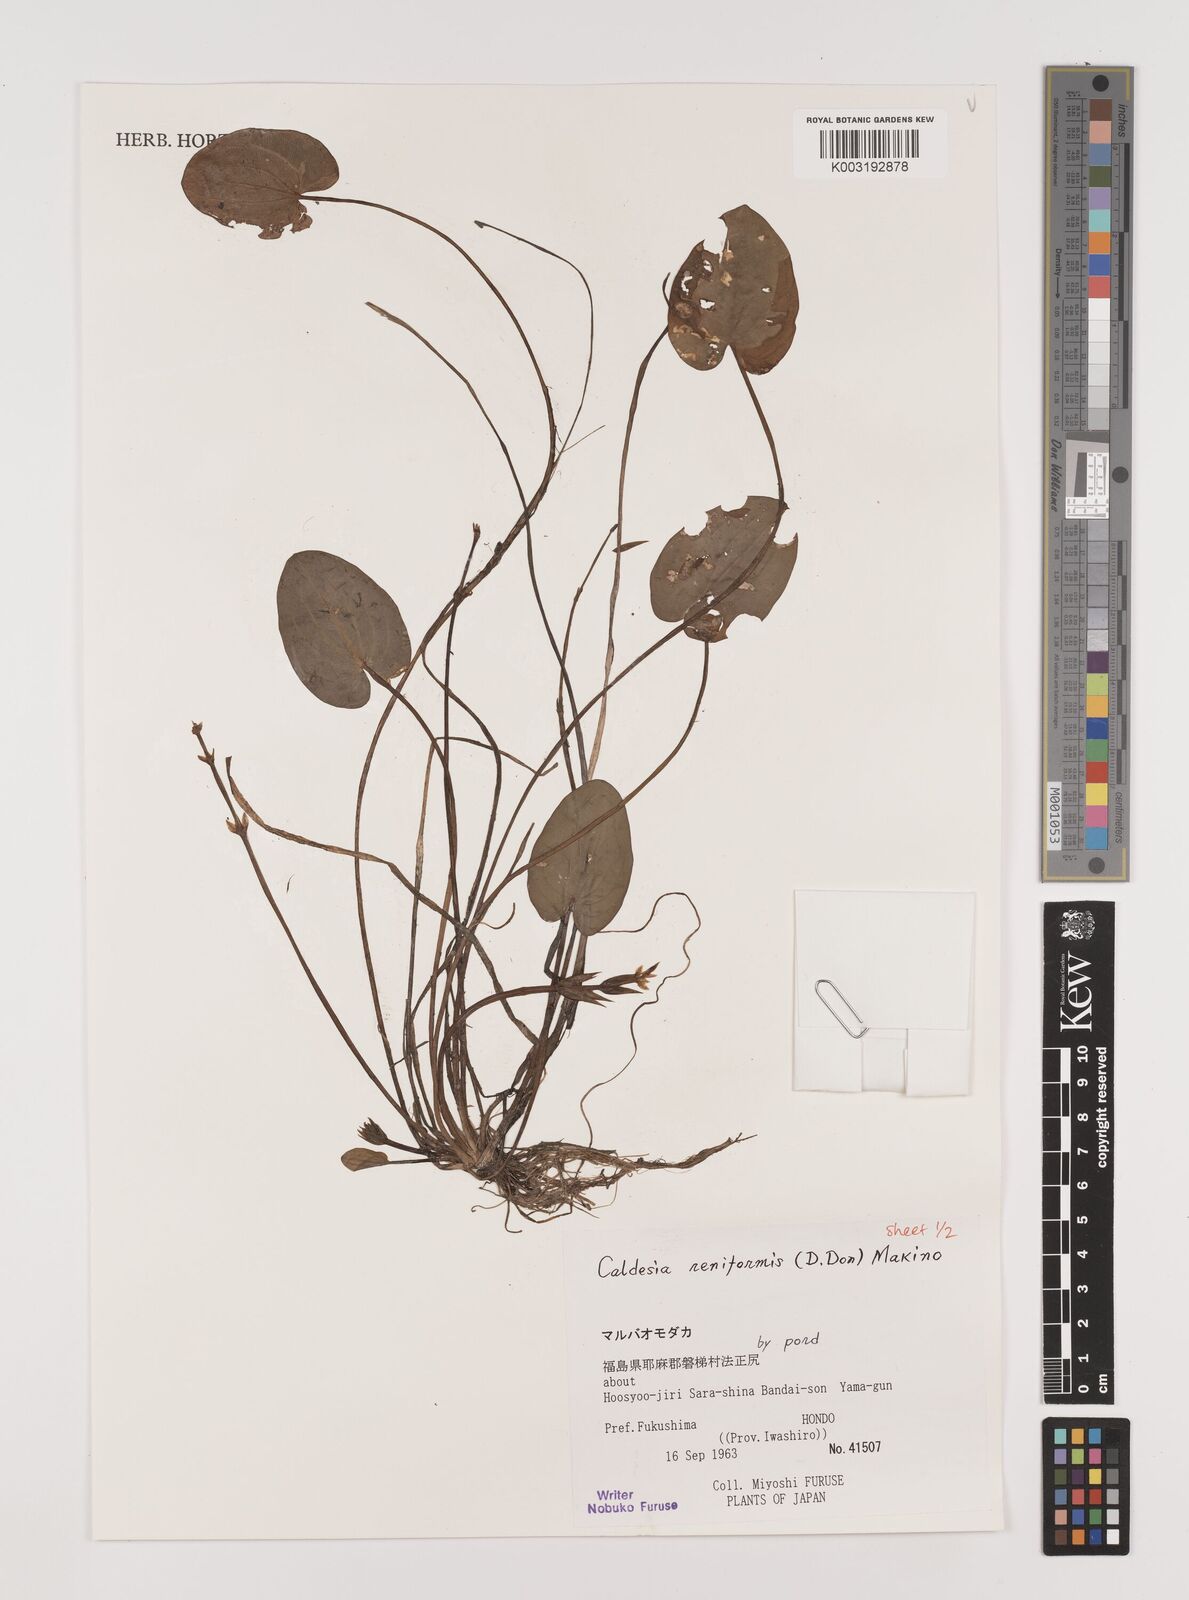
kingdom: Plantae
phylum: Tracheophyta
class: Liliopsida
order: Alismatales
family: Alismataceae
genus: Caldesia
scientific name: Caldesia parnassifolia
